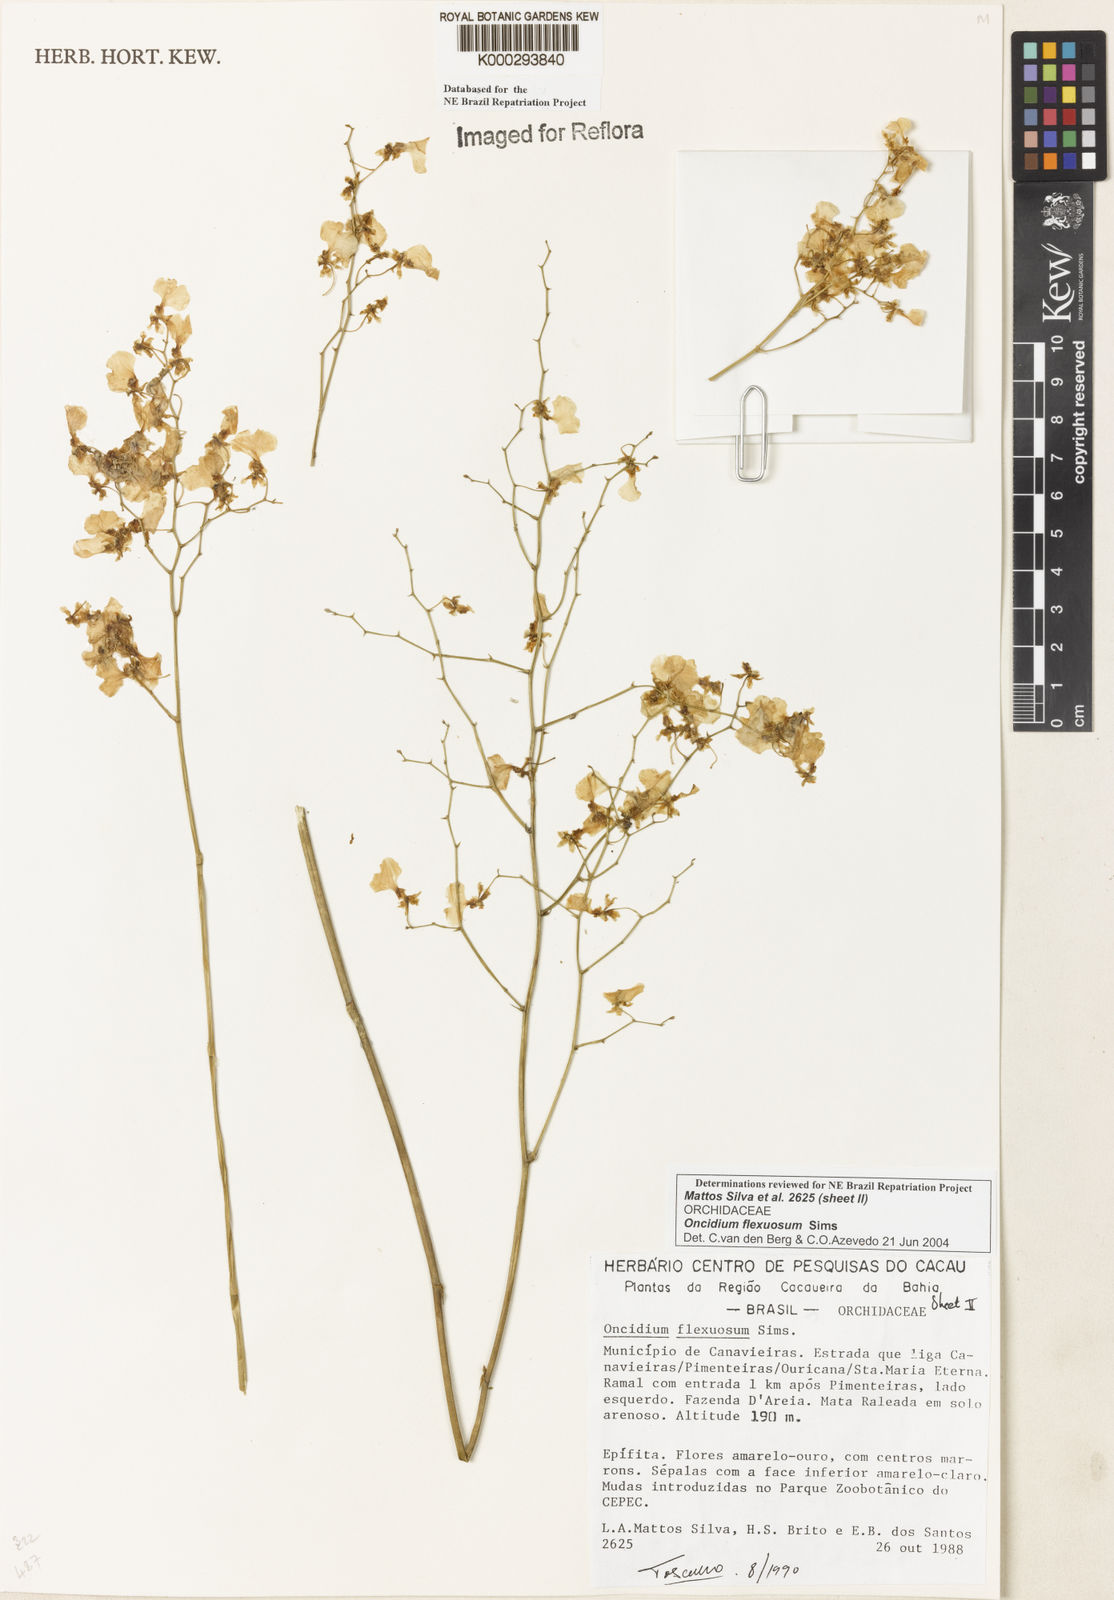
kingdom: Plantae
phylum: Tracheophyta
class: Liliopsida
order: Asparagales
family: Orchidaceae
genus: Gomesa
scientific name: Gomesa flexuosa
